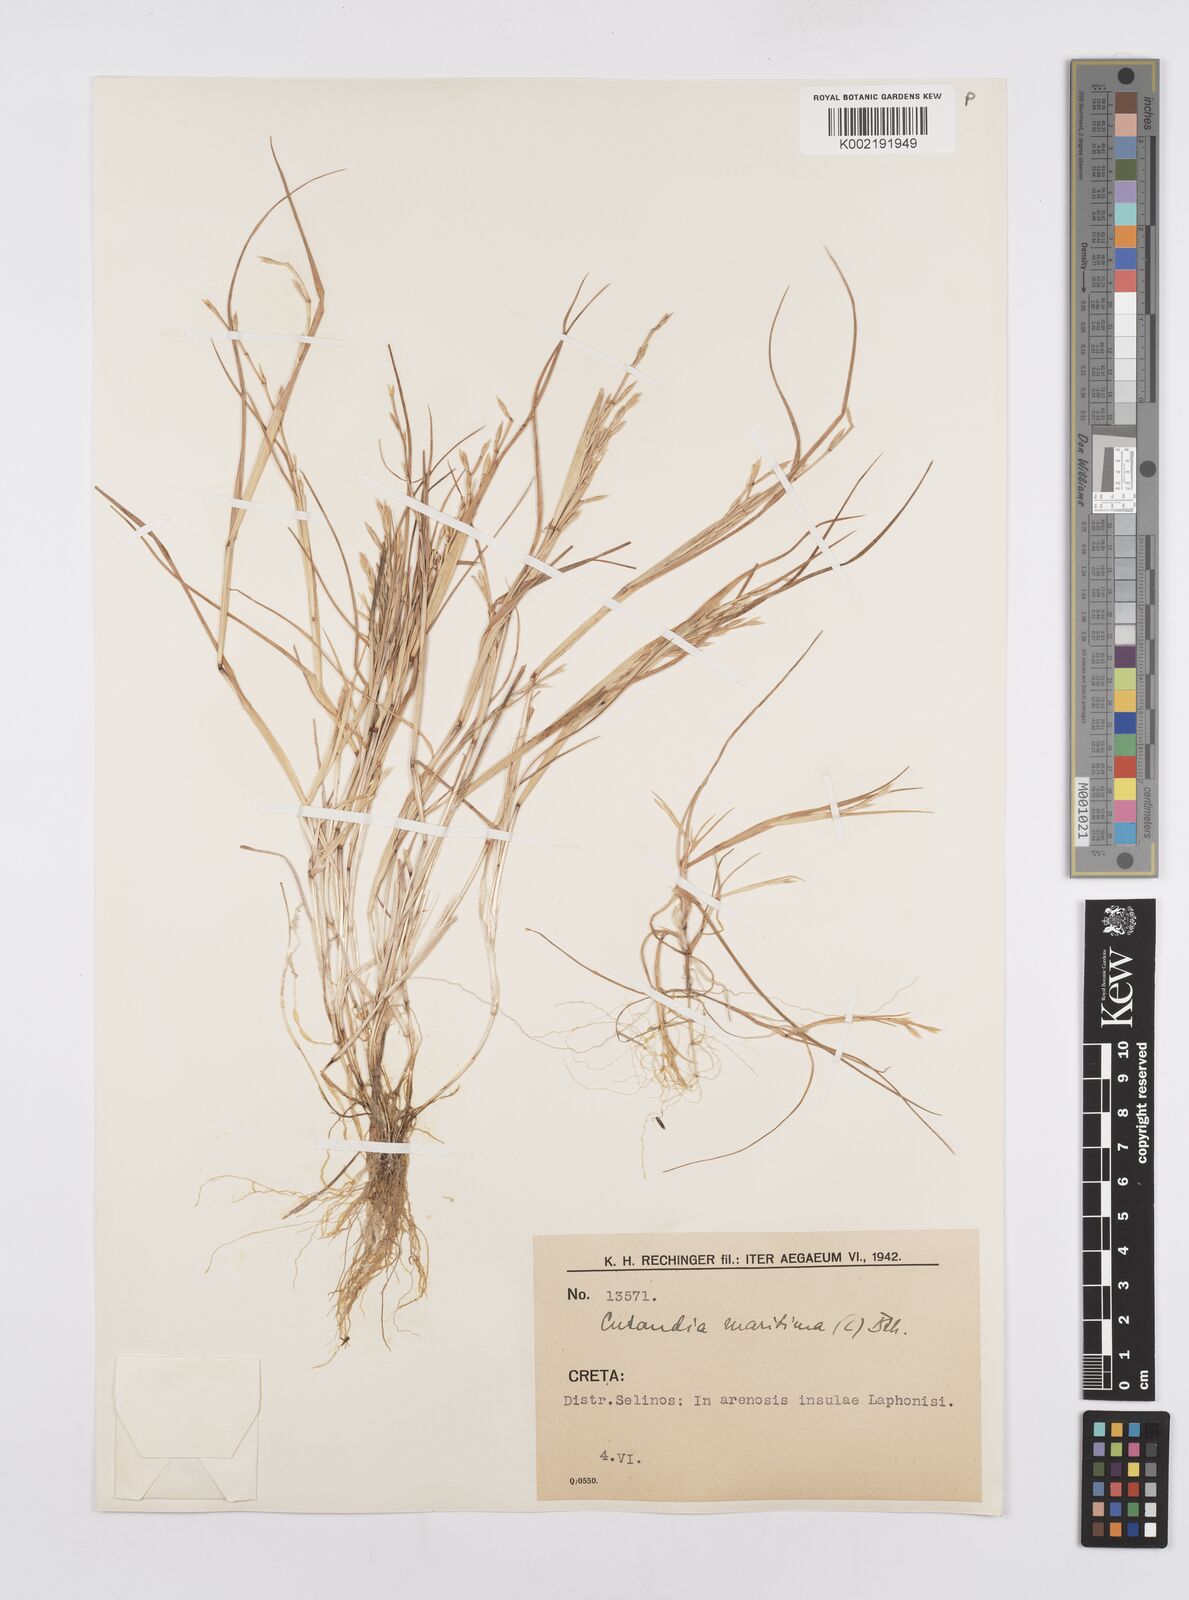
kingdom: Plantae
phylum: Tracheophyta
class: Liliopsida
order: Poales
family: Poaceae
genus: Cutandia
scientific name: Cutandia maritima
